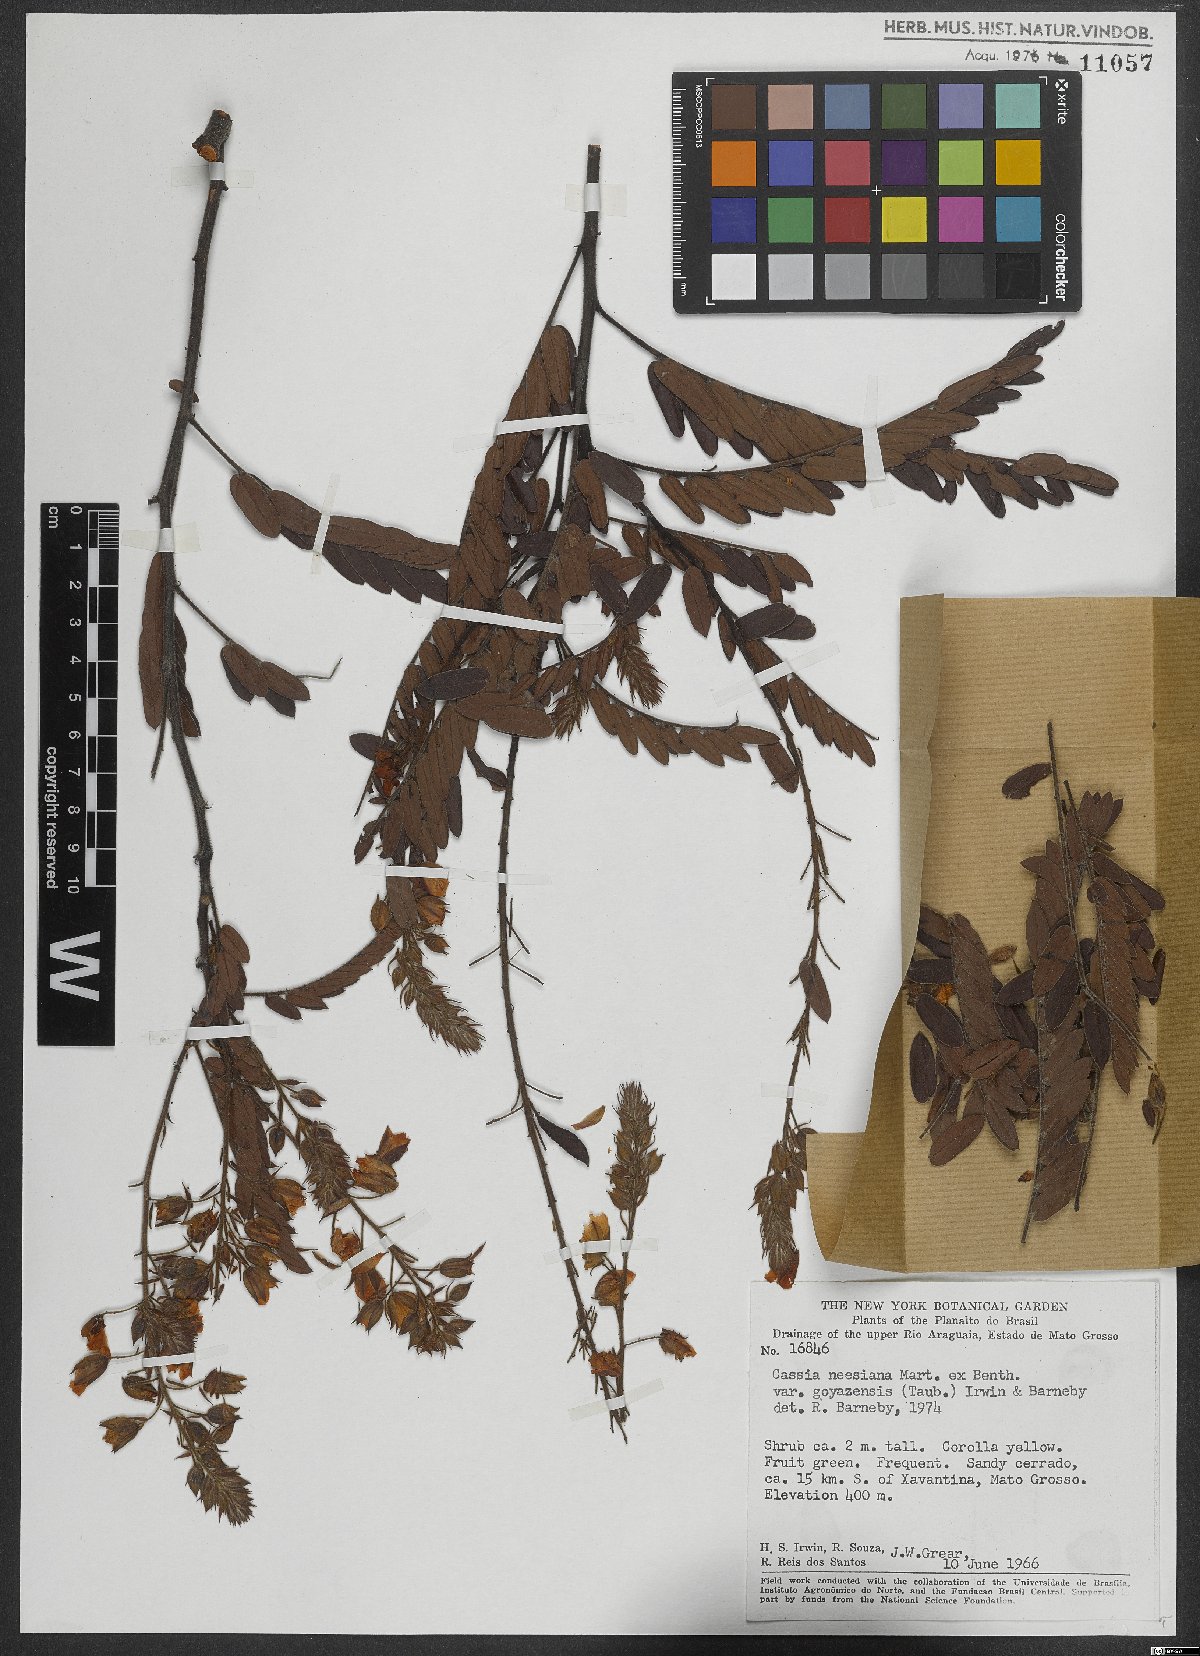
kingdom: Plantae
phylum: Tracheophyta
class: Magnoliopsida
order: Fabales
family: Fabaceae
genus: Chamaecrista
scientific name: Chamaecrista neesiana
